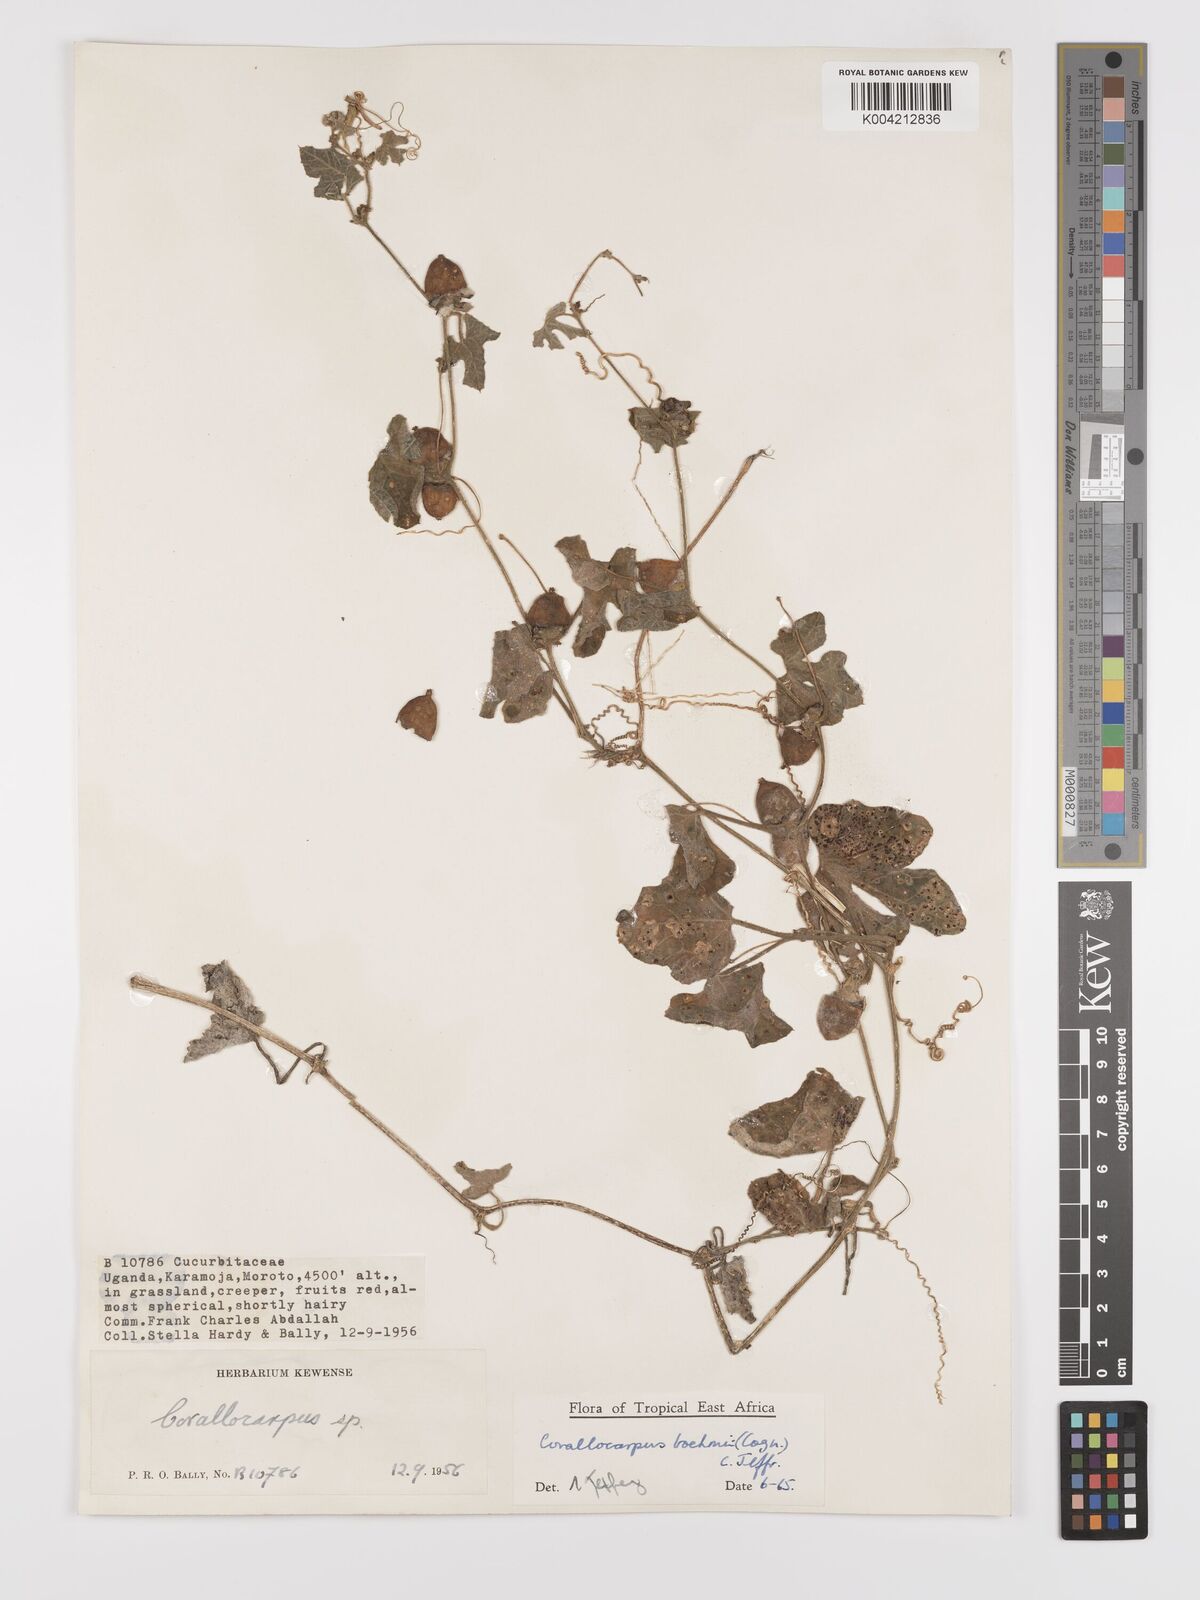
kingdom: Plantae
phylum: Tracheophyta
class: Magnoliopsida
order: Cucurbitales
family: Cucurbitaceae
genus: Corallocarpus
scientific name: Corallocarpus boehmii
